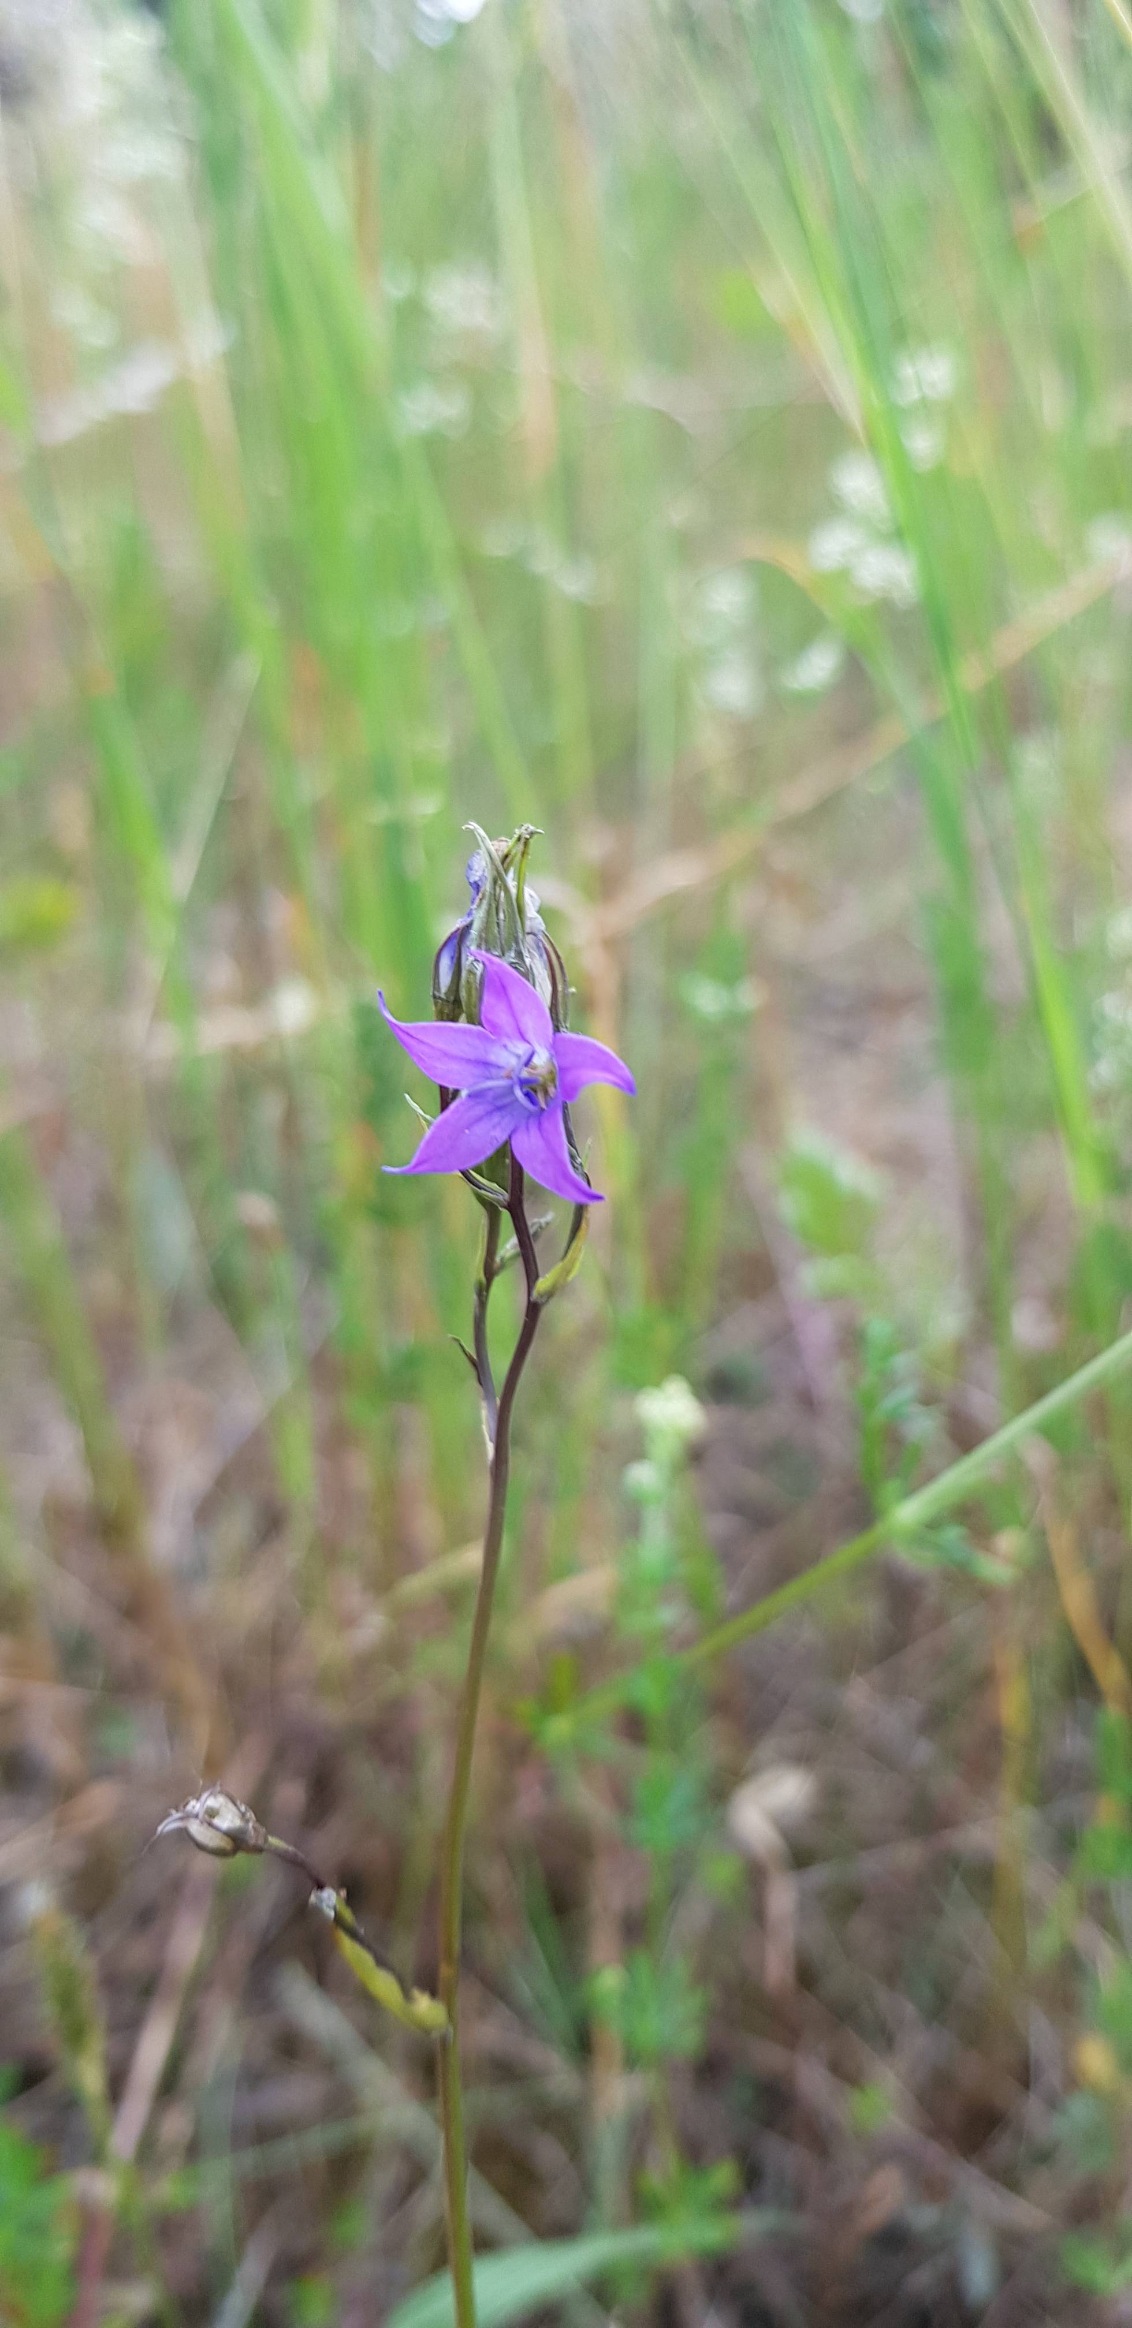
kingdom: Plantae
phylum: Tracheophyta
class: Magnoliopsida
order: Asterales
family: Campanulaceae
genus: Campanula
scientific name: Campanula patula
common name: Eng-klokke
